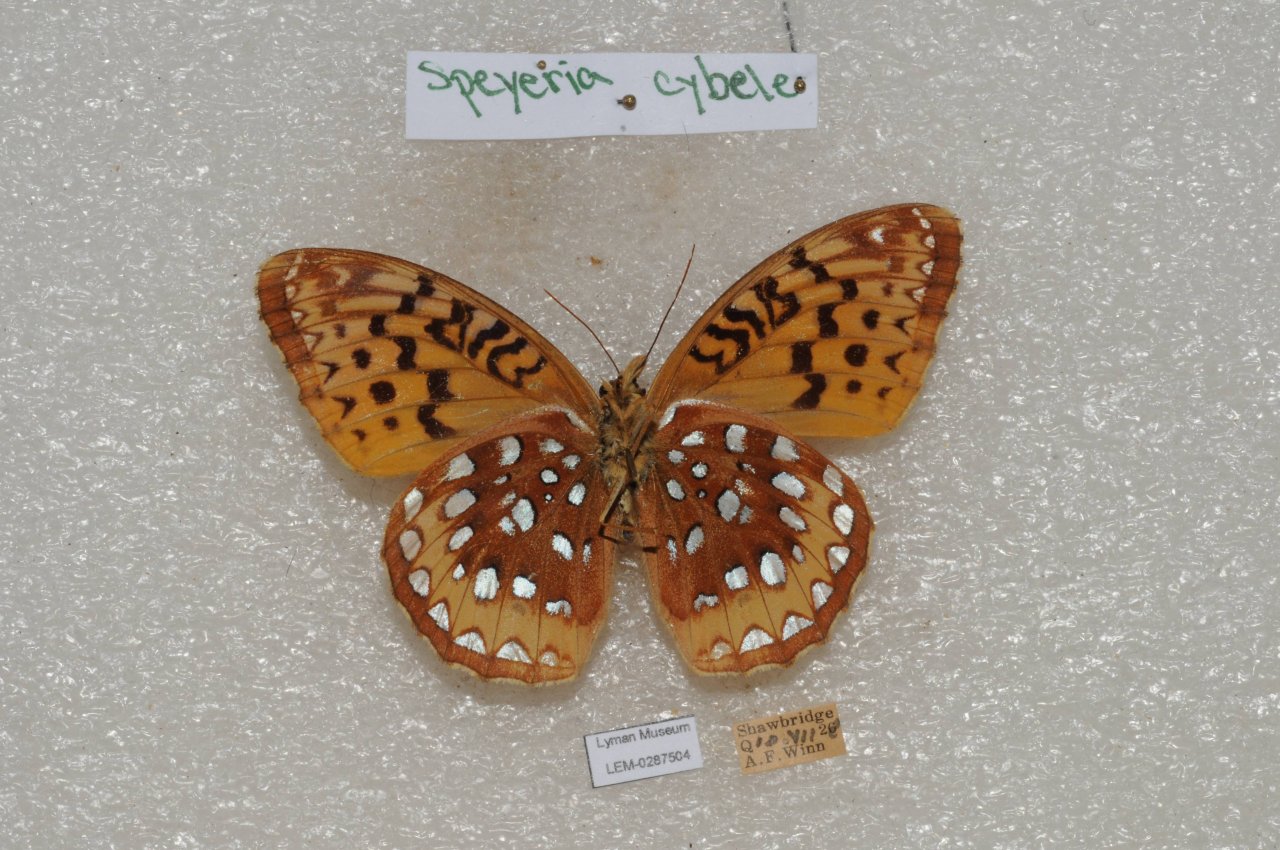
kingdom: Animalia
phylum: Arthropoda
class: Insecta
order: Lepidoptera
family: Nymphalidae
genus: Speyeria
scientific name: Speyeria cybele
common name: Great Spangled Fritillary
